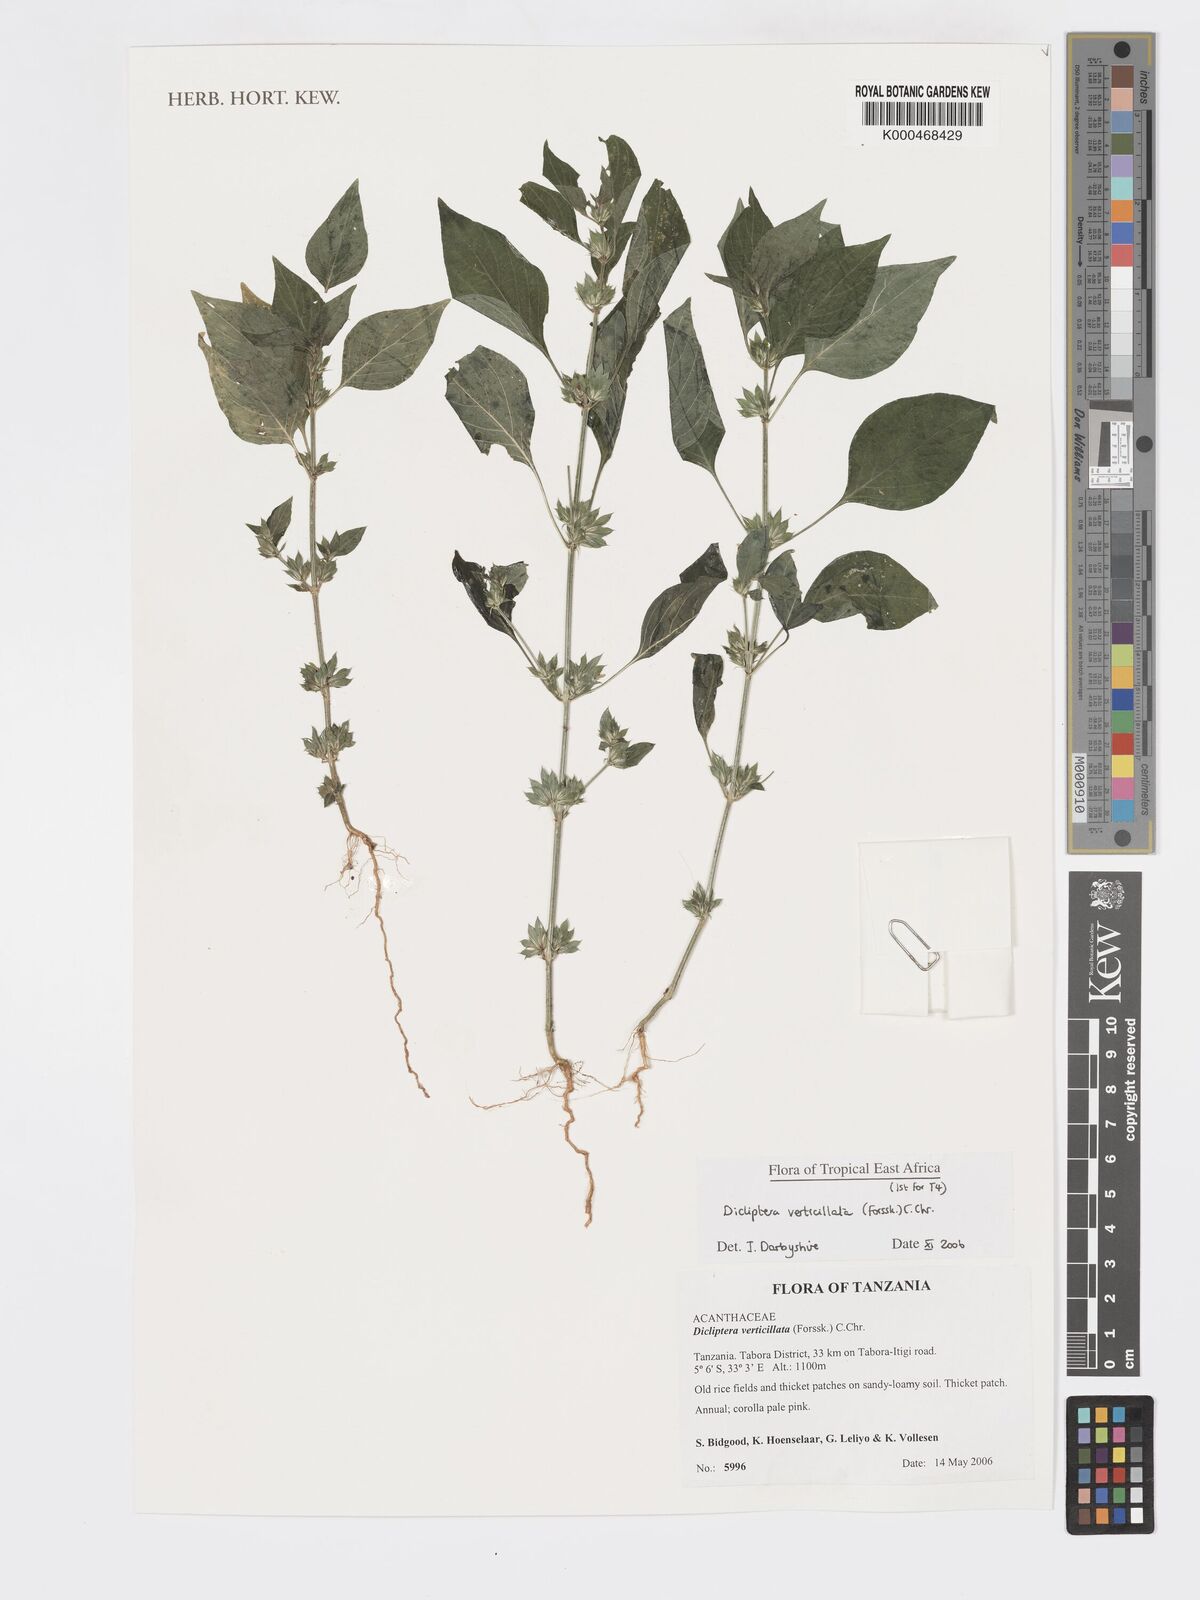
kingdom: Plantae
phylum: Tracheophyta
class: Magnoliopsida
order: Lamiales
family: Acanthaceae
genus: Dicliptera
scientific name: Dicliptera verticillata
